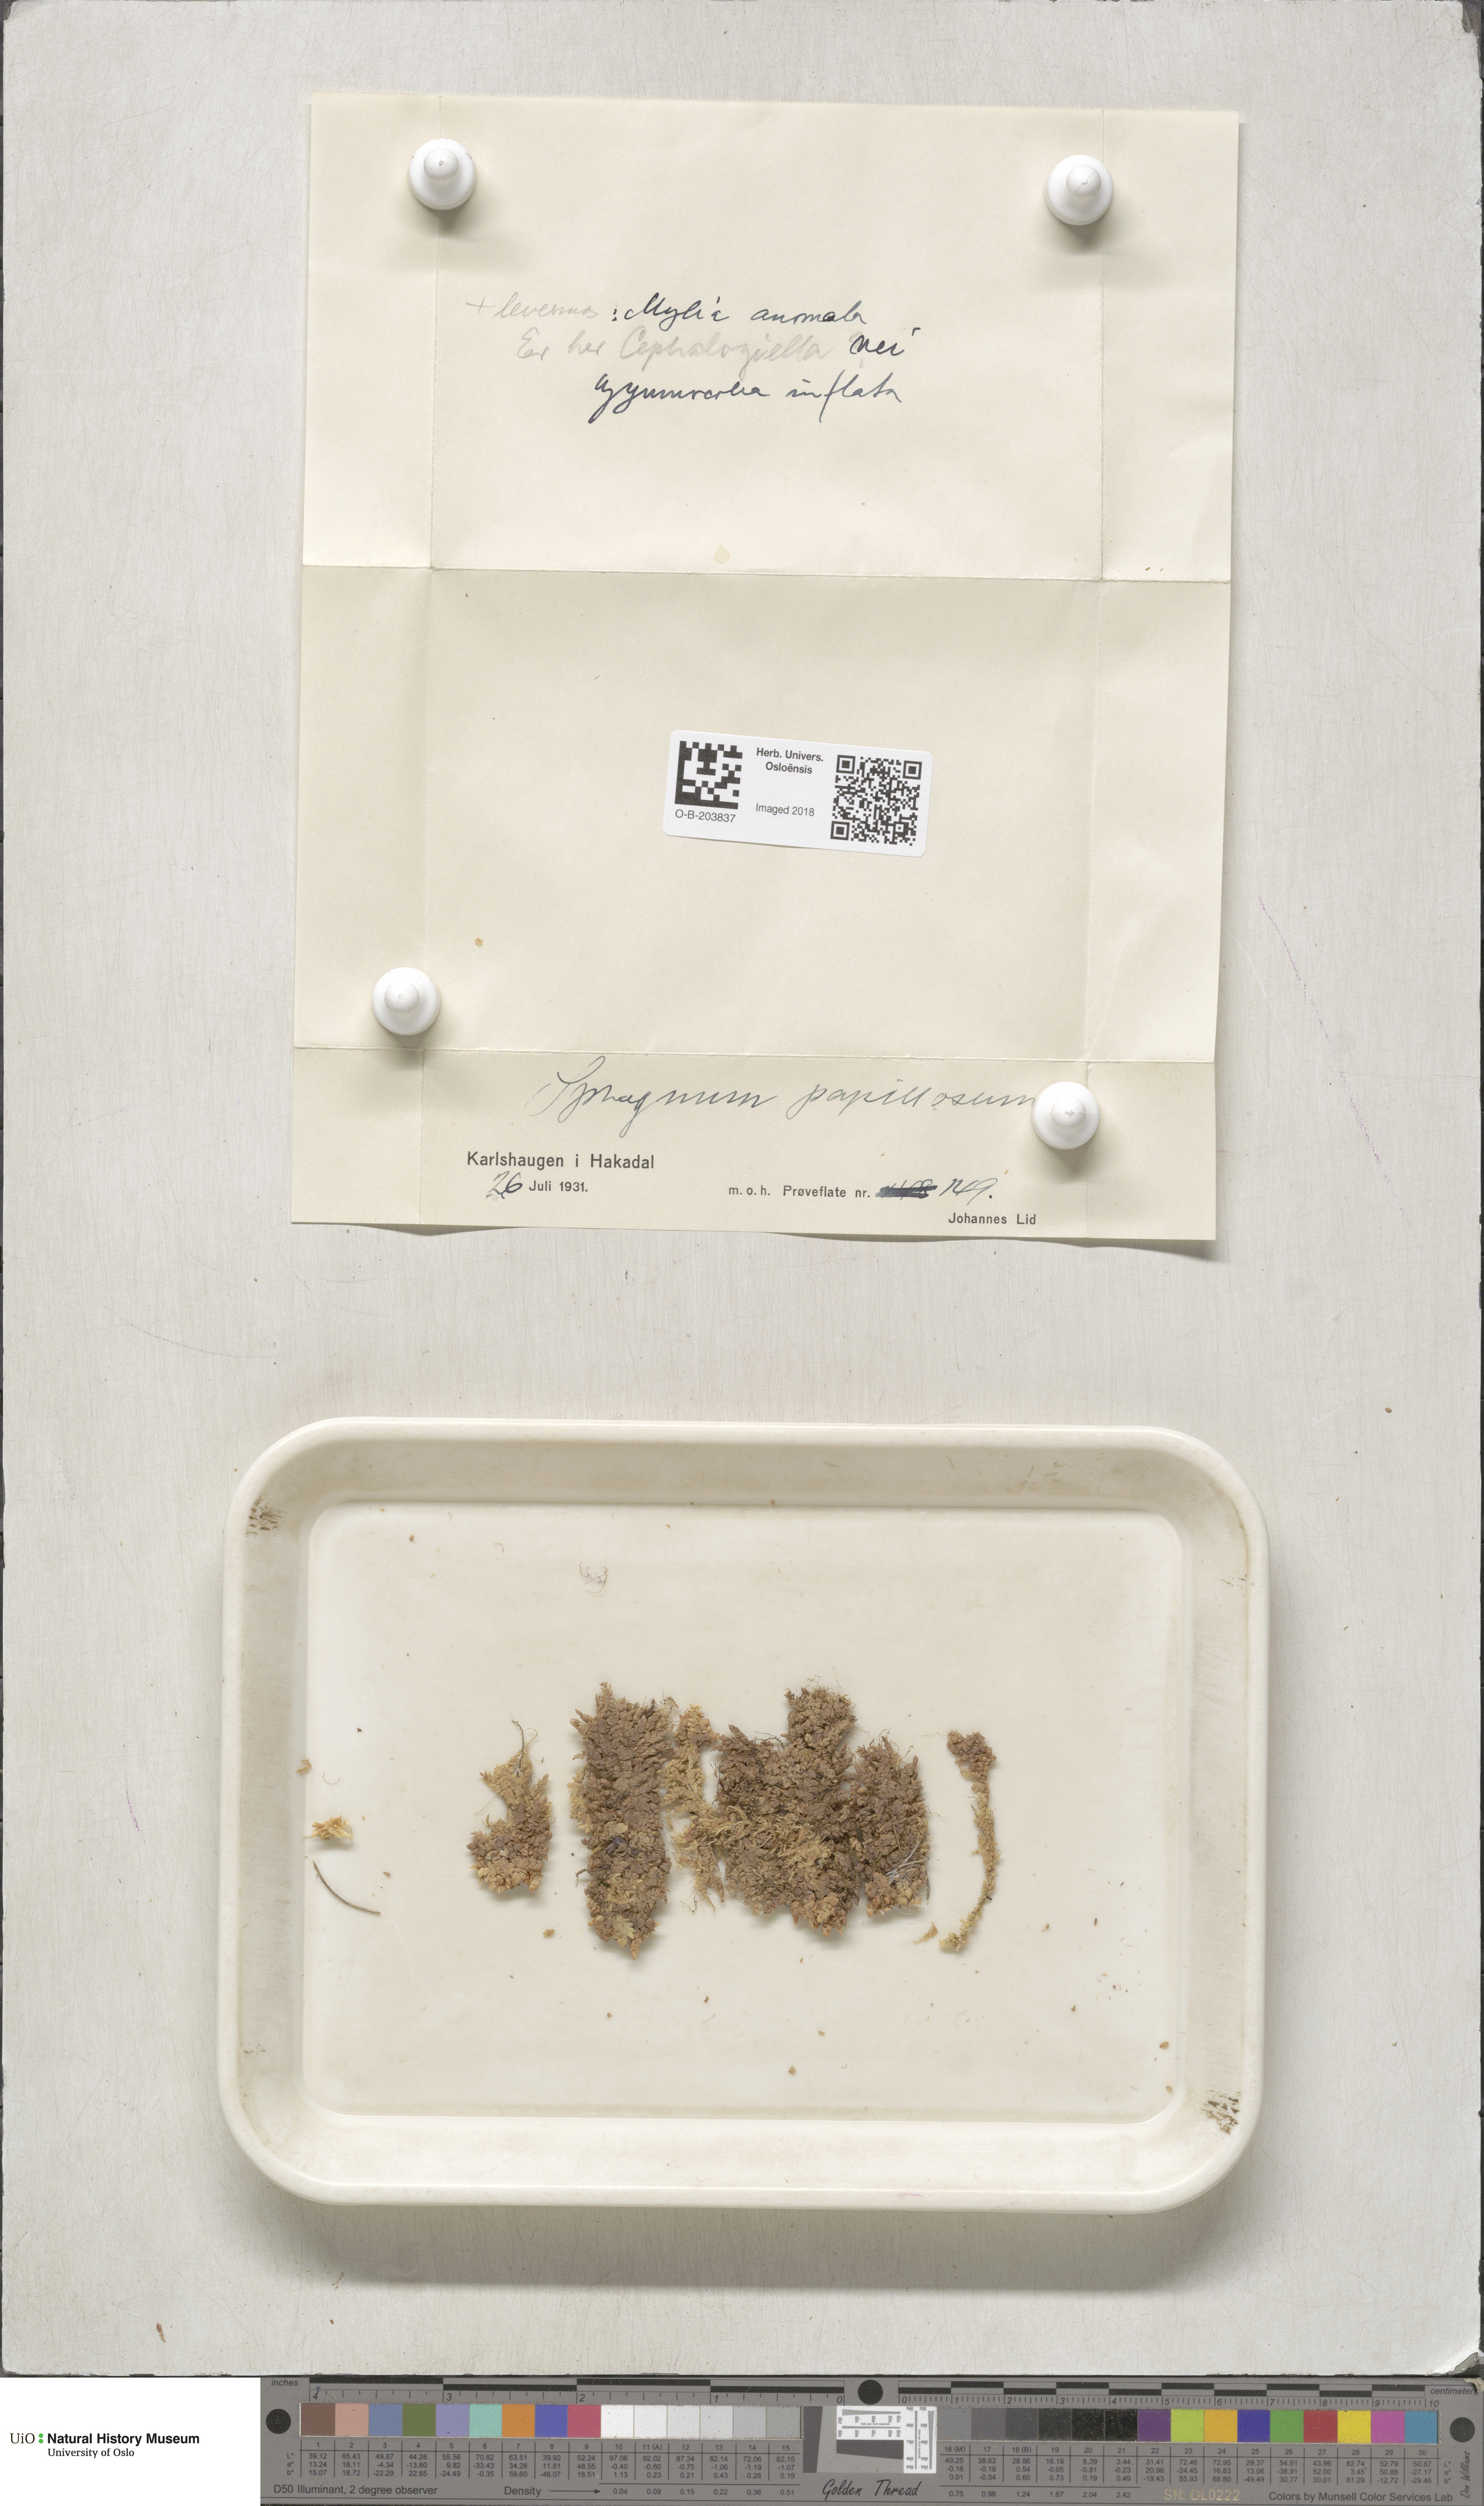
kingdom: Plantae
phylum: Bryophyta
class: Sphagnopsida
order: Sphagnales
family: Sphagnaceae
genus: Sphagnum
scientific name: Sphagnum papillosum
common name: Papillose peat moss
